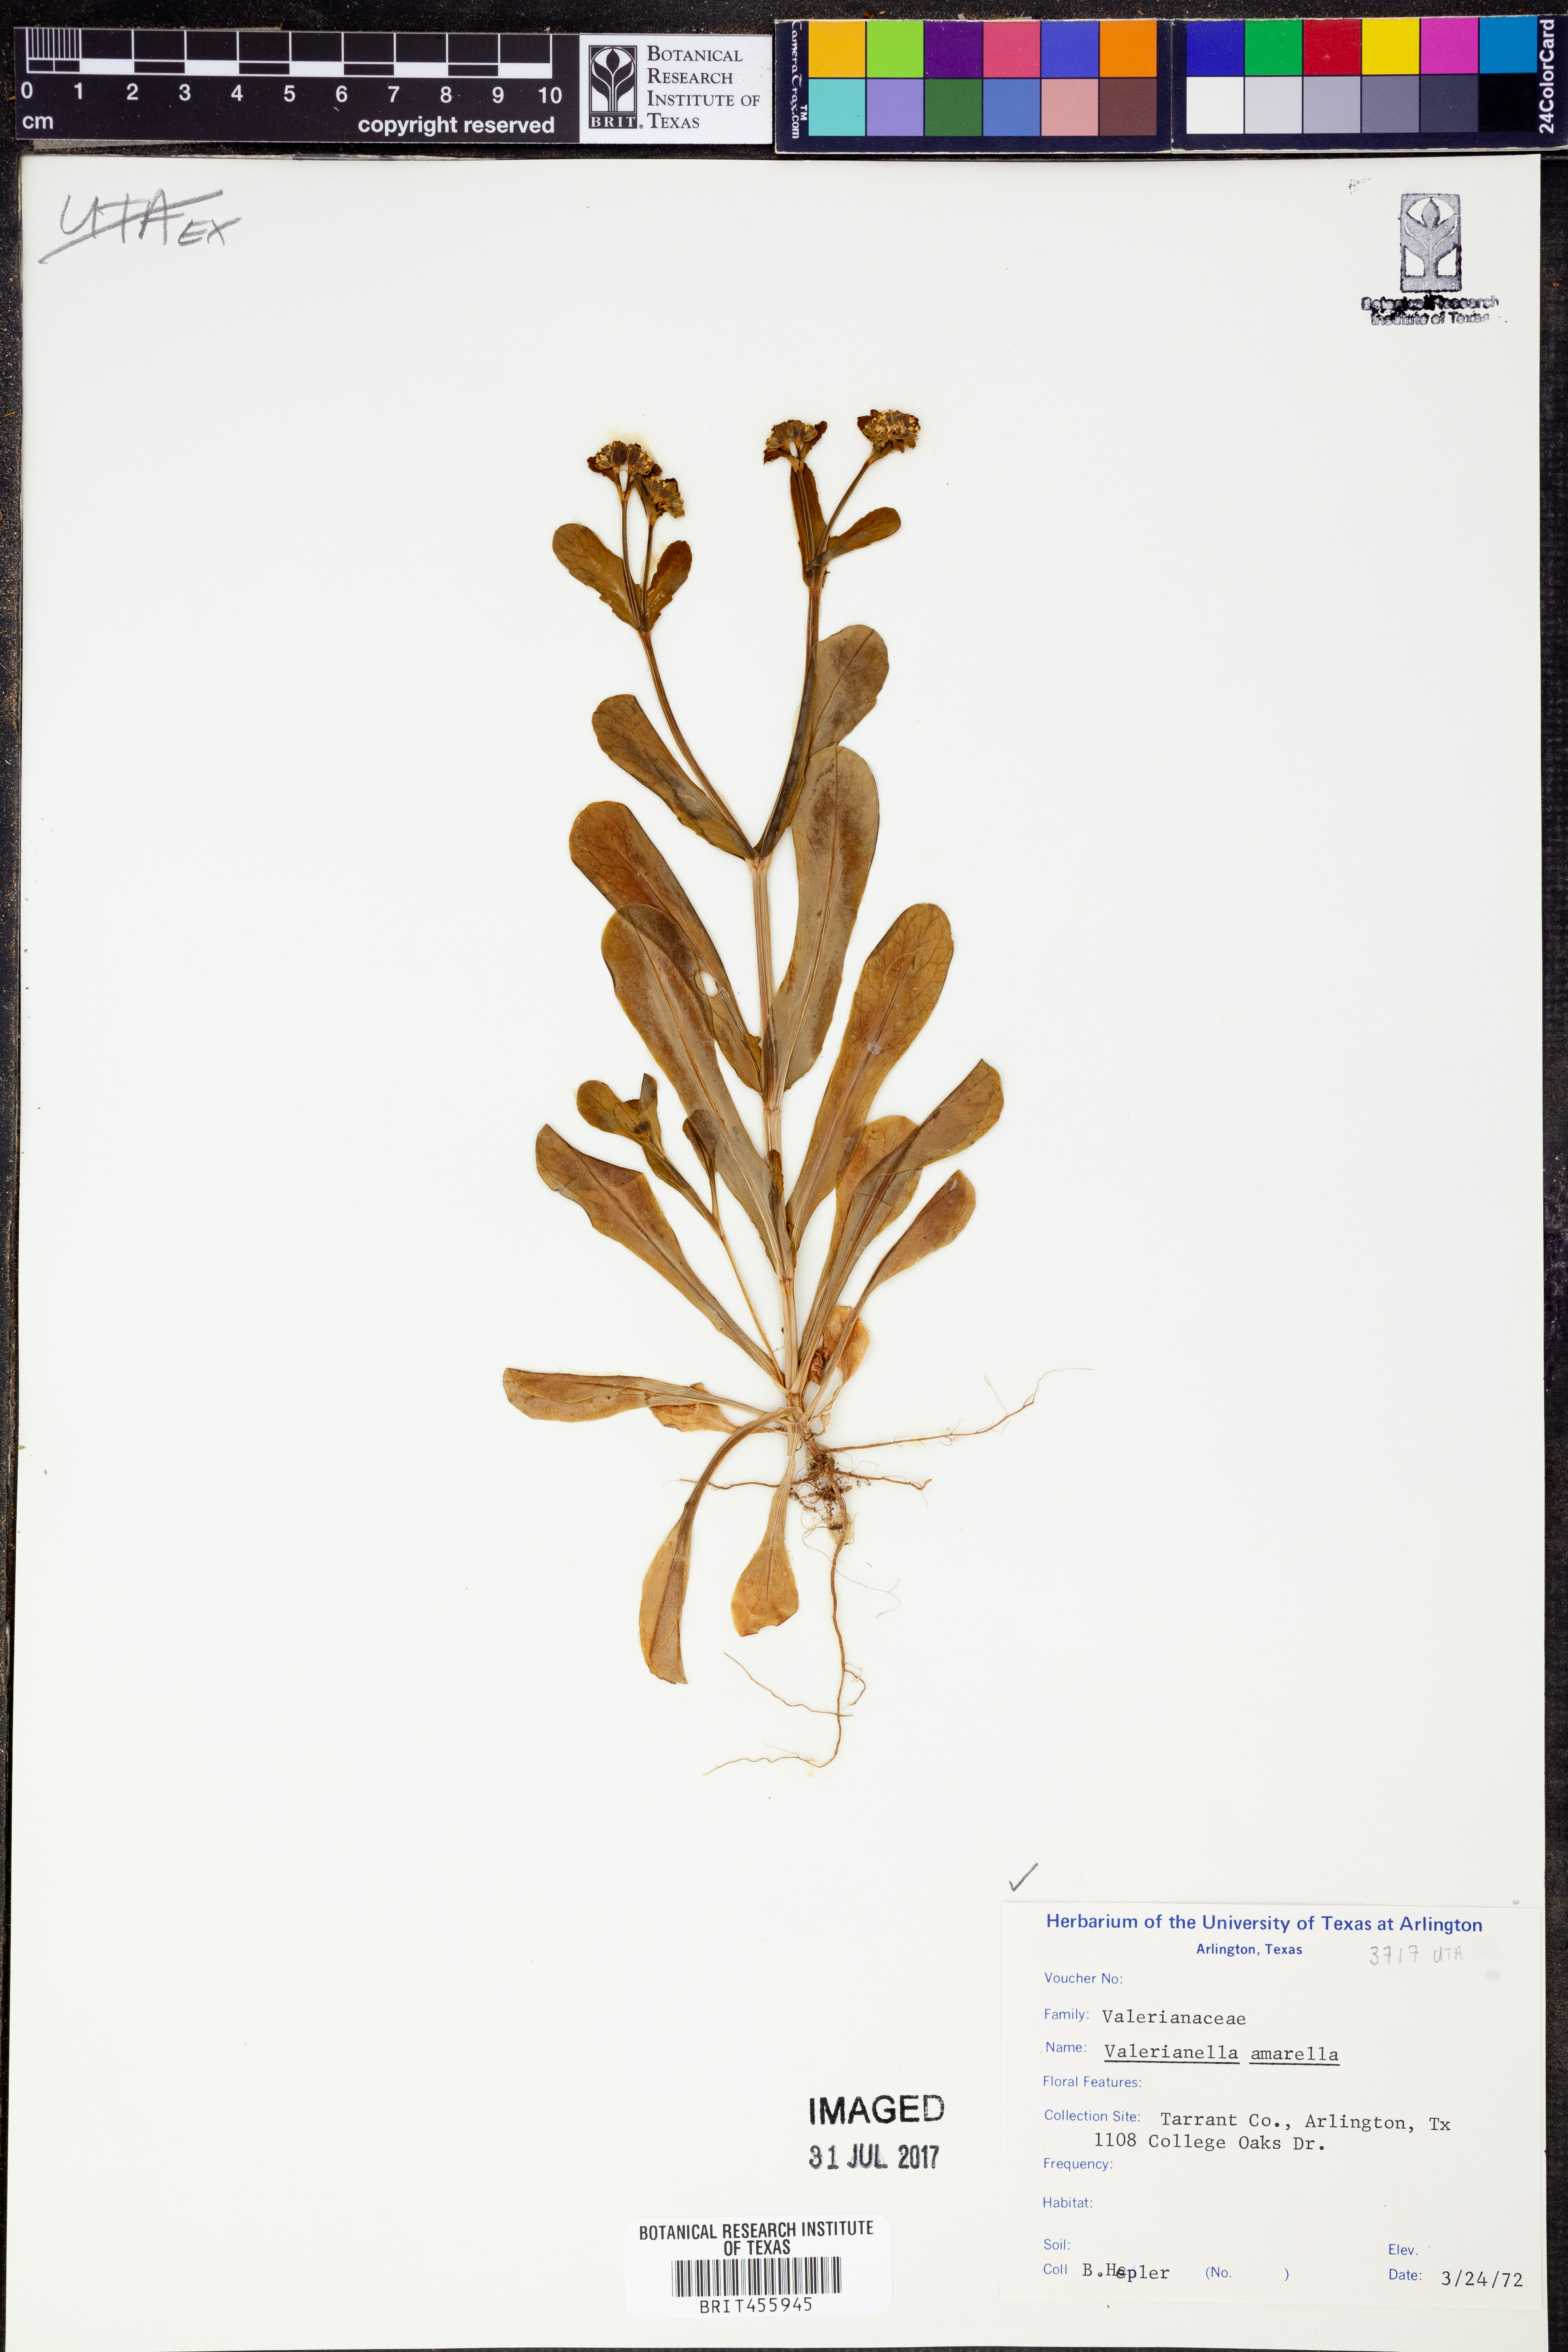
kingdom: Plantae
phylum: Tracheophyta
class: Magnoliopsida
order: Dipsacales
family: Caprifoliaceae
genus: Valerianella
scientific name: Valerianella amarella
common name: Hariy cornsalad
